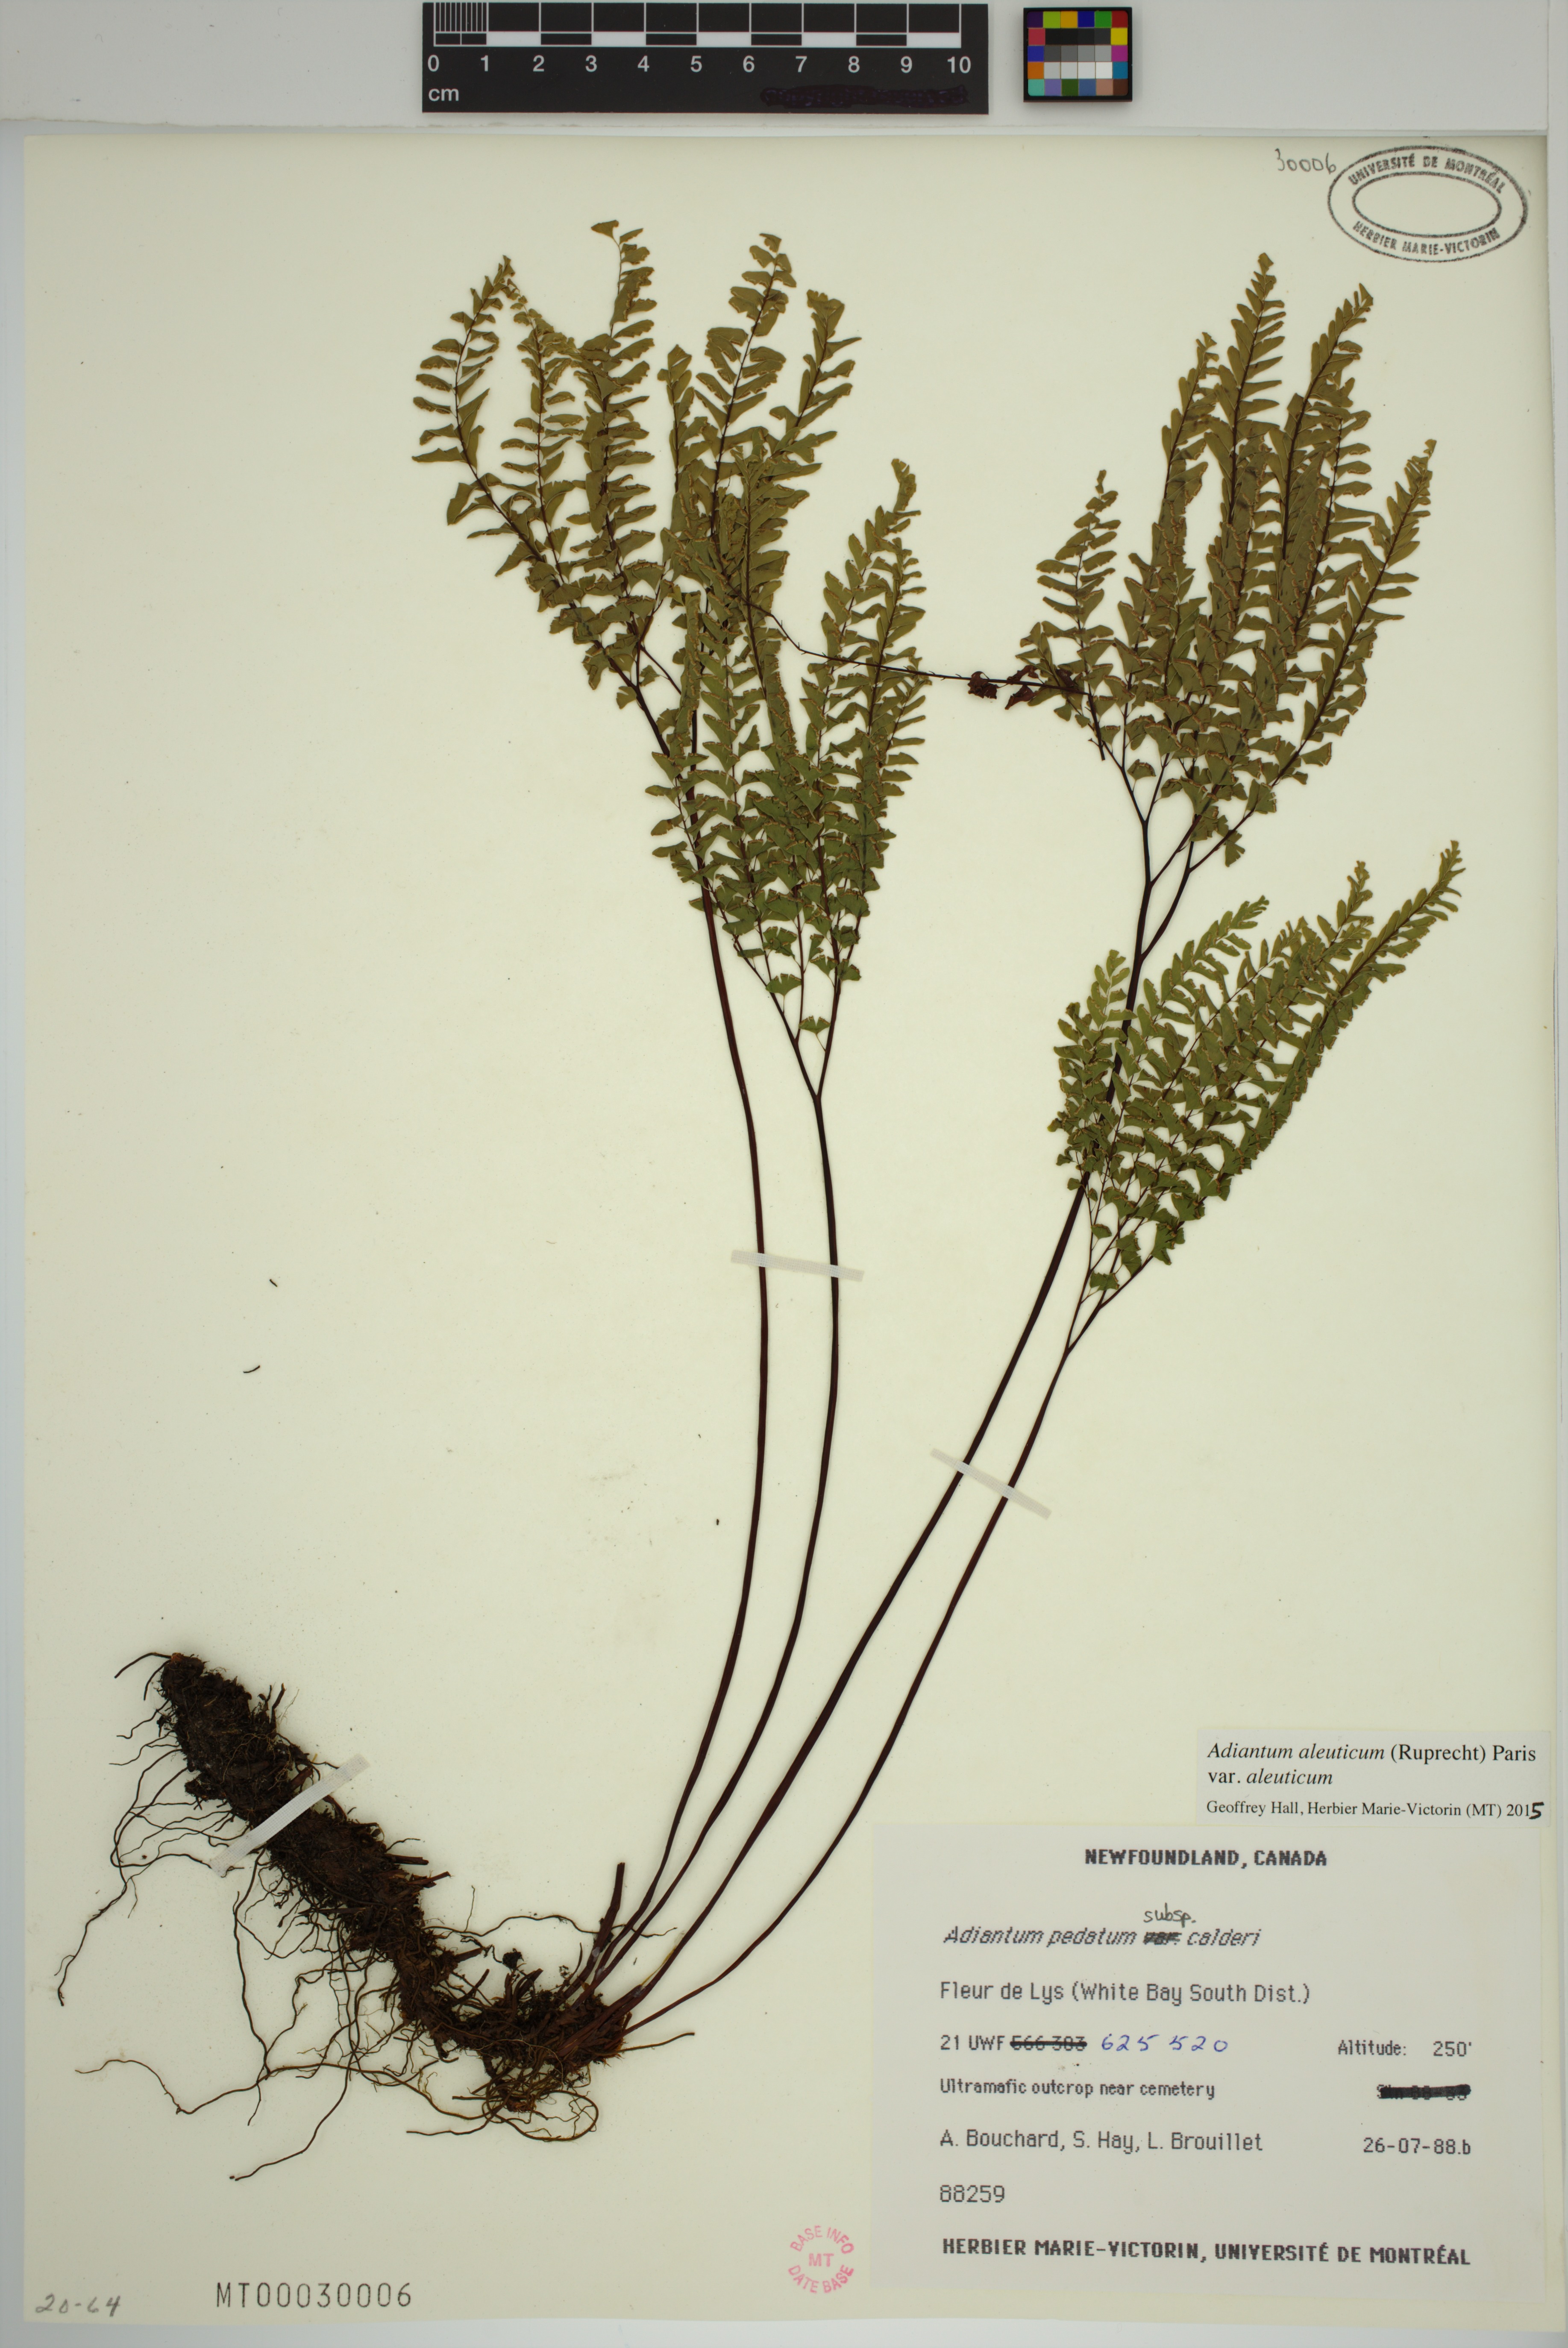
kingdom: Plantae
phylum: Tracheophyta
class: Polypodiopsida
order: Polypodiales
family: Pteridaceae
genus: Adiantum
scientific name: Adiantum aleuticum
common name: Aleutian maidenhair fern
